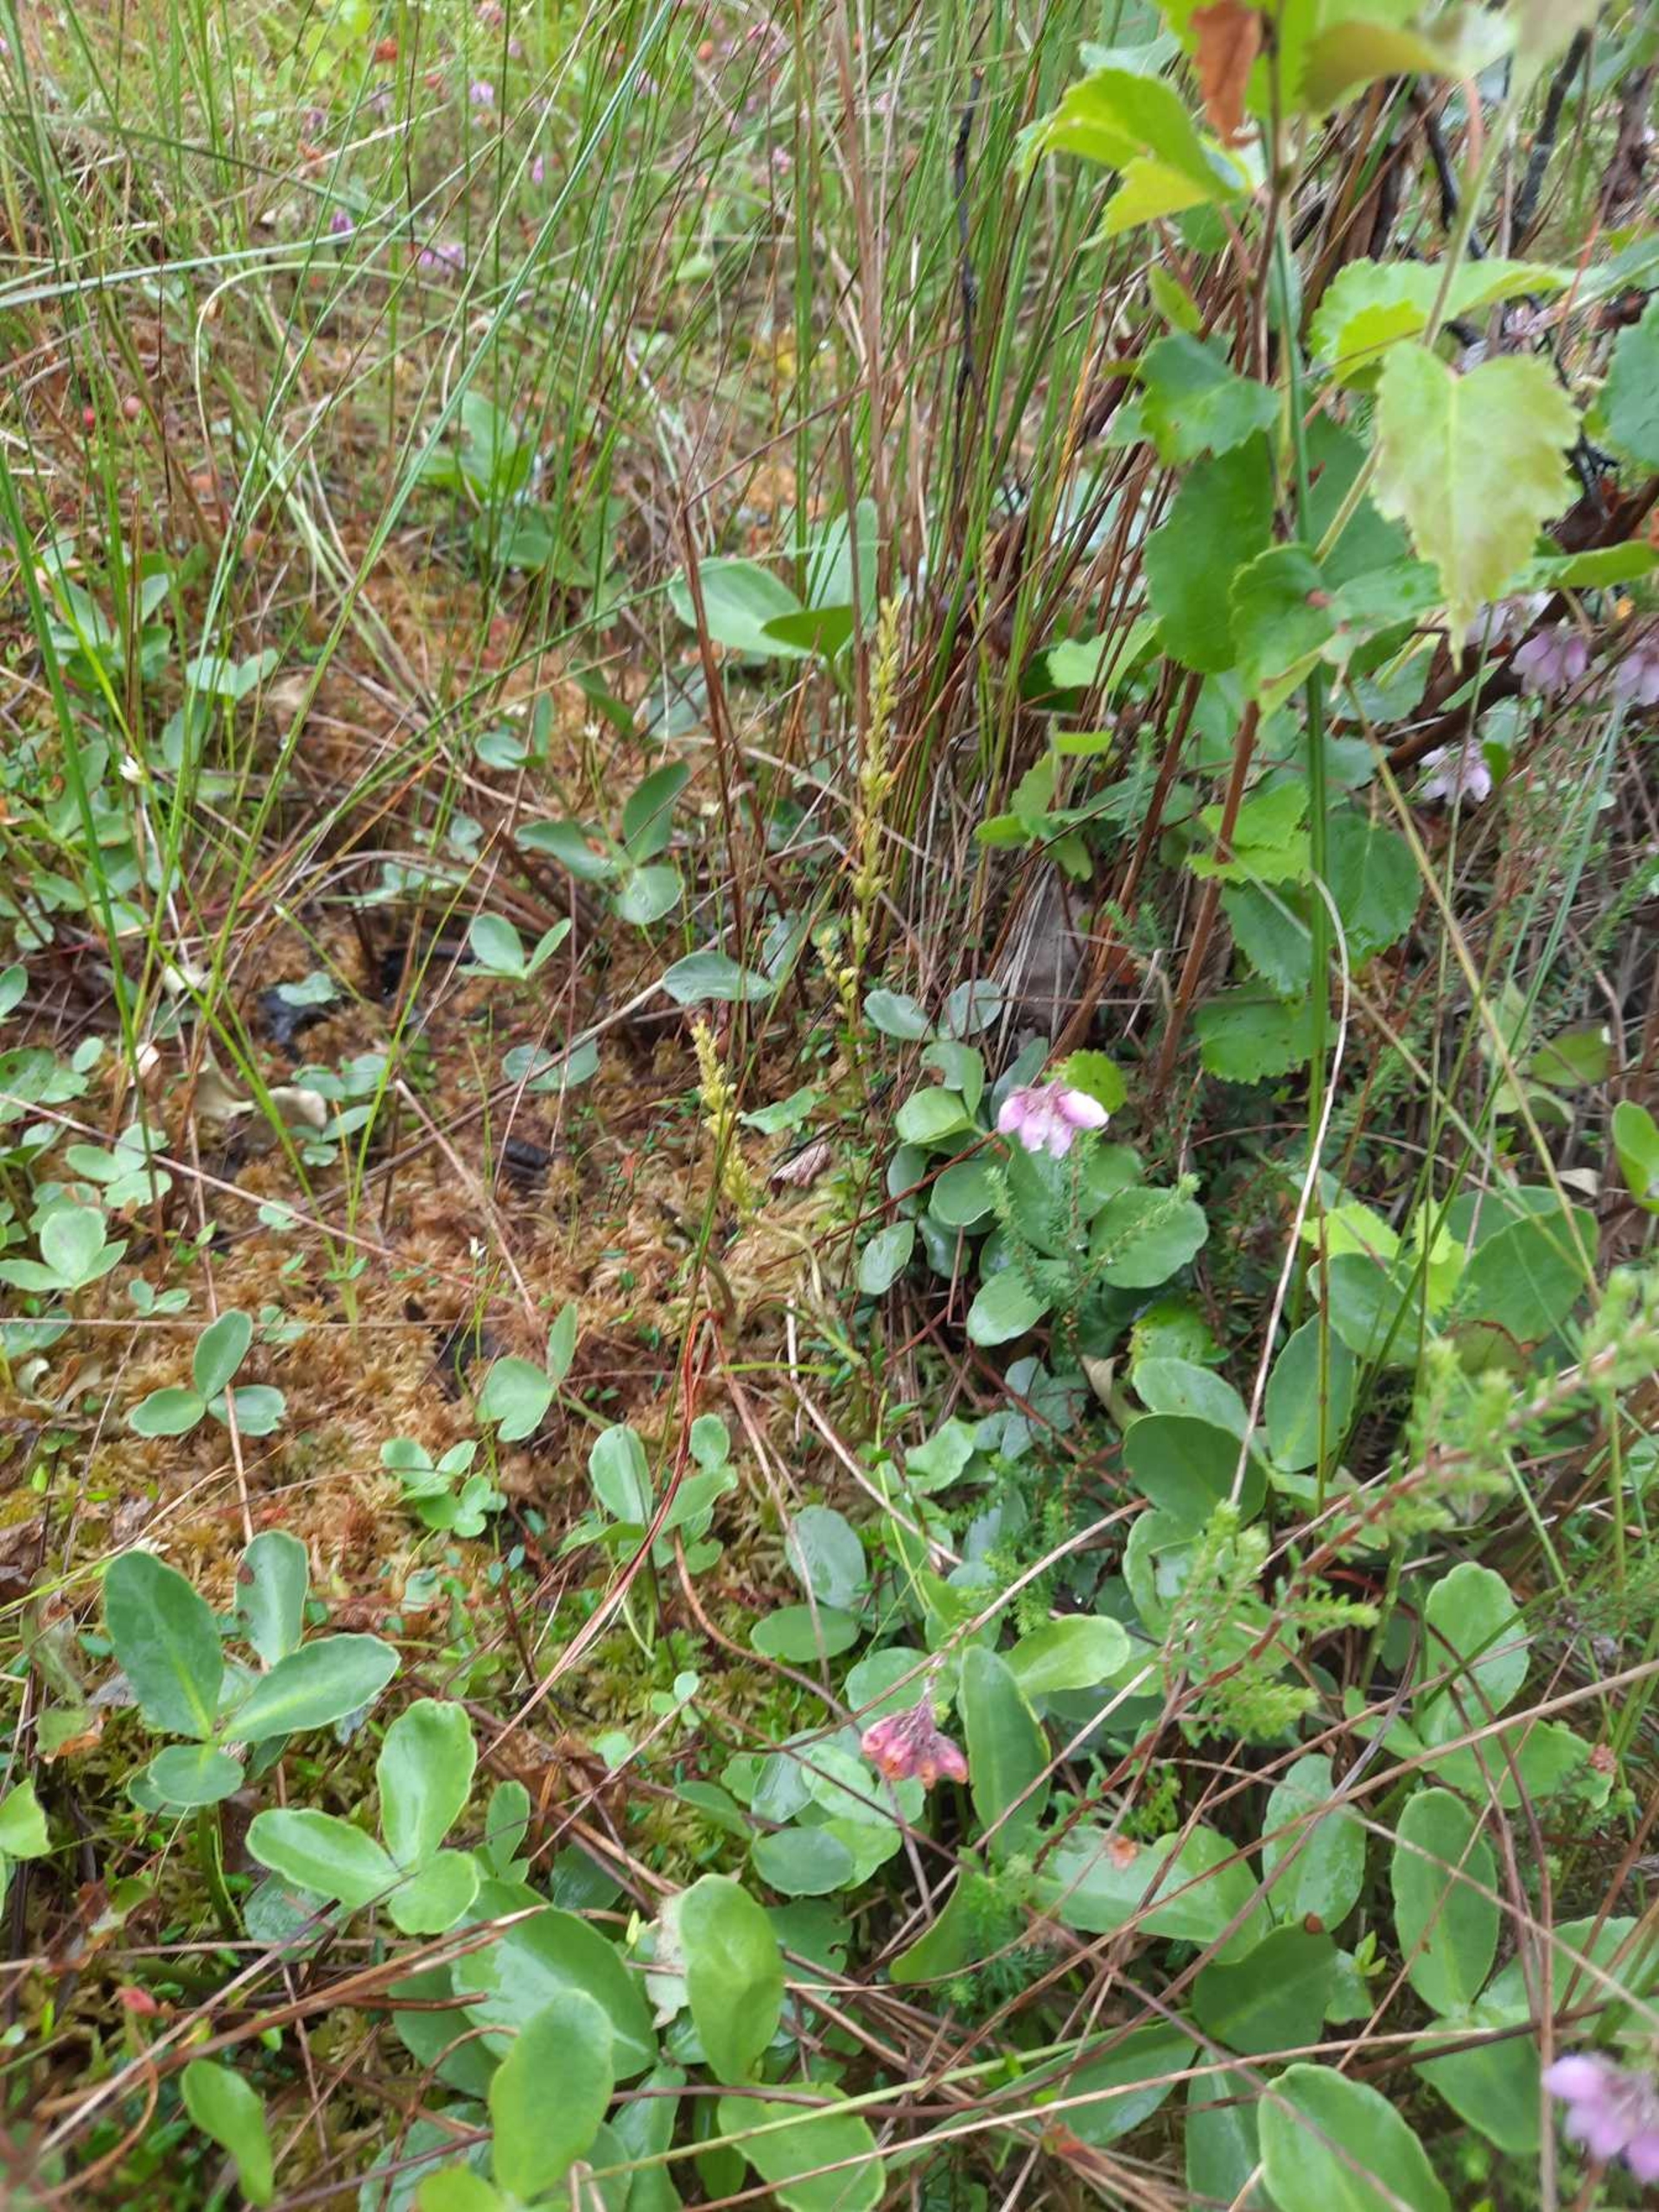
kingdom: Plantae
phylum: Tracheophyta
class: Liliopsida
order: Asparagales
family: Orchidaceae
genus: Hammarbya
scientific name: Hammarbya paludosa
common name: Hjertelæbe
